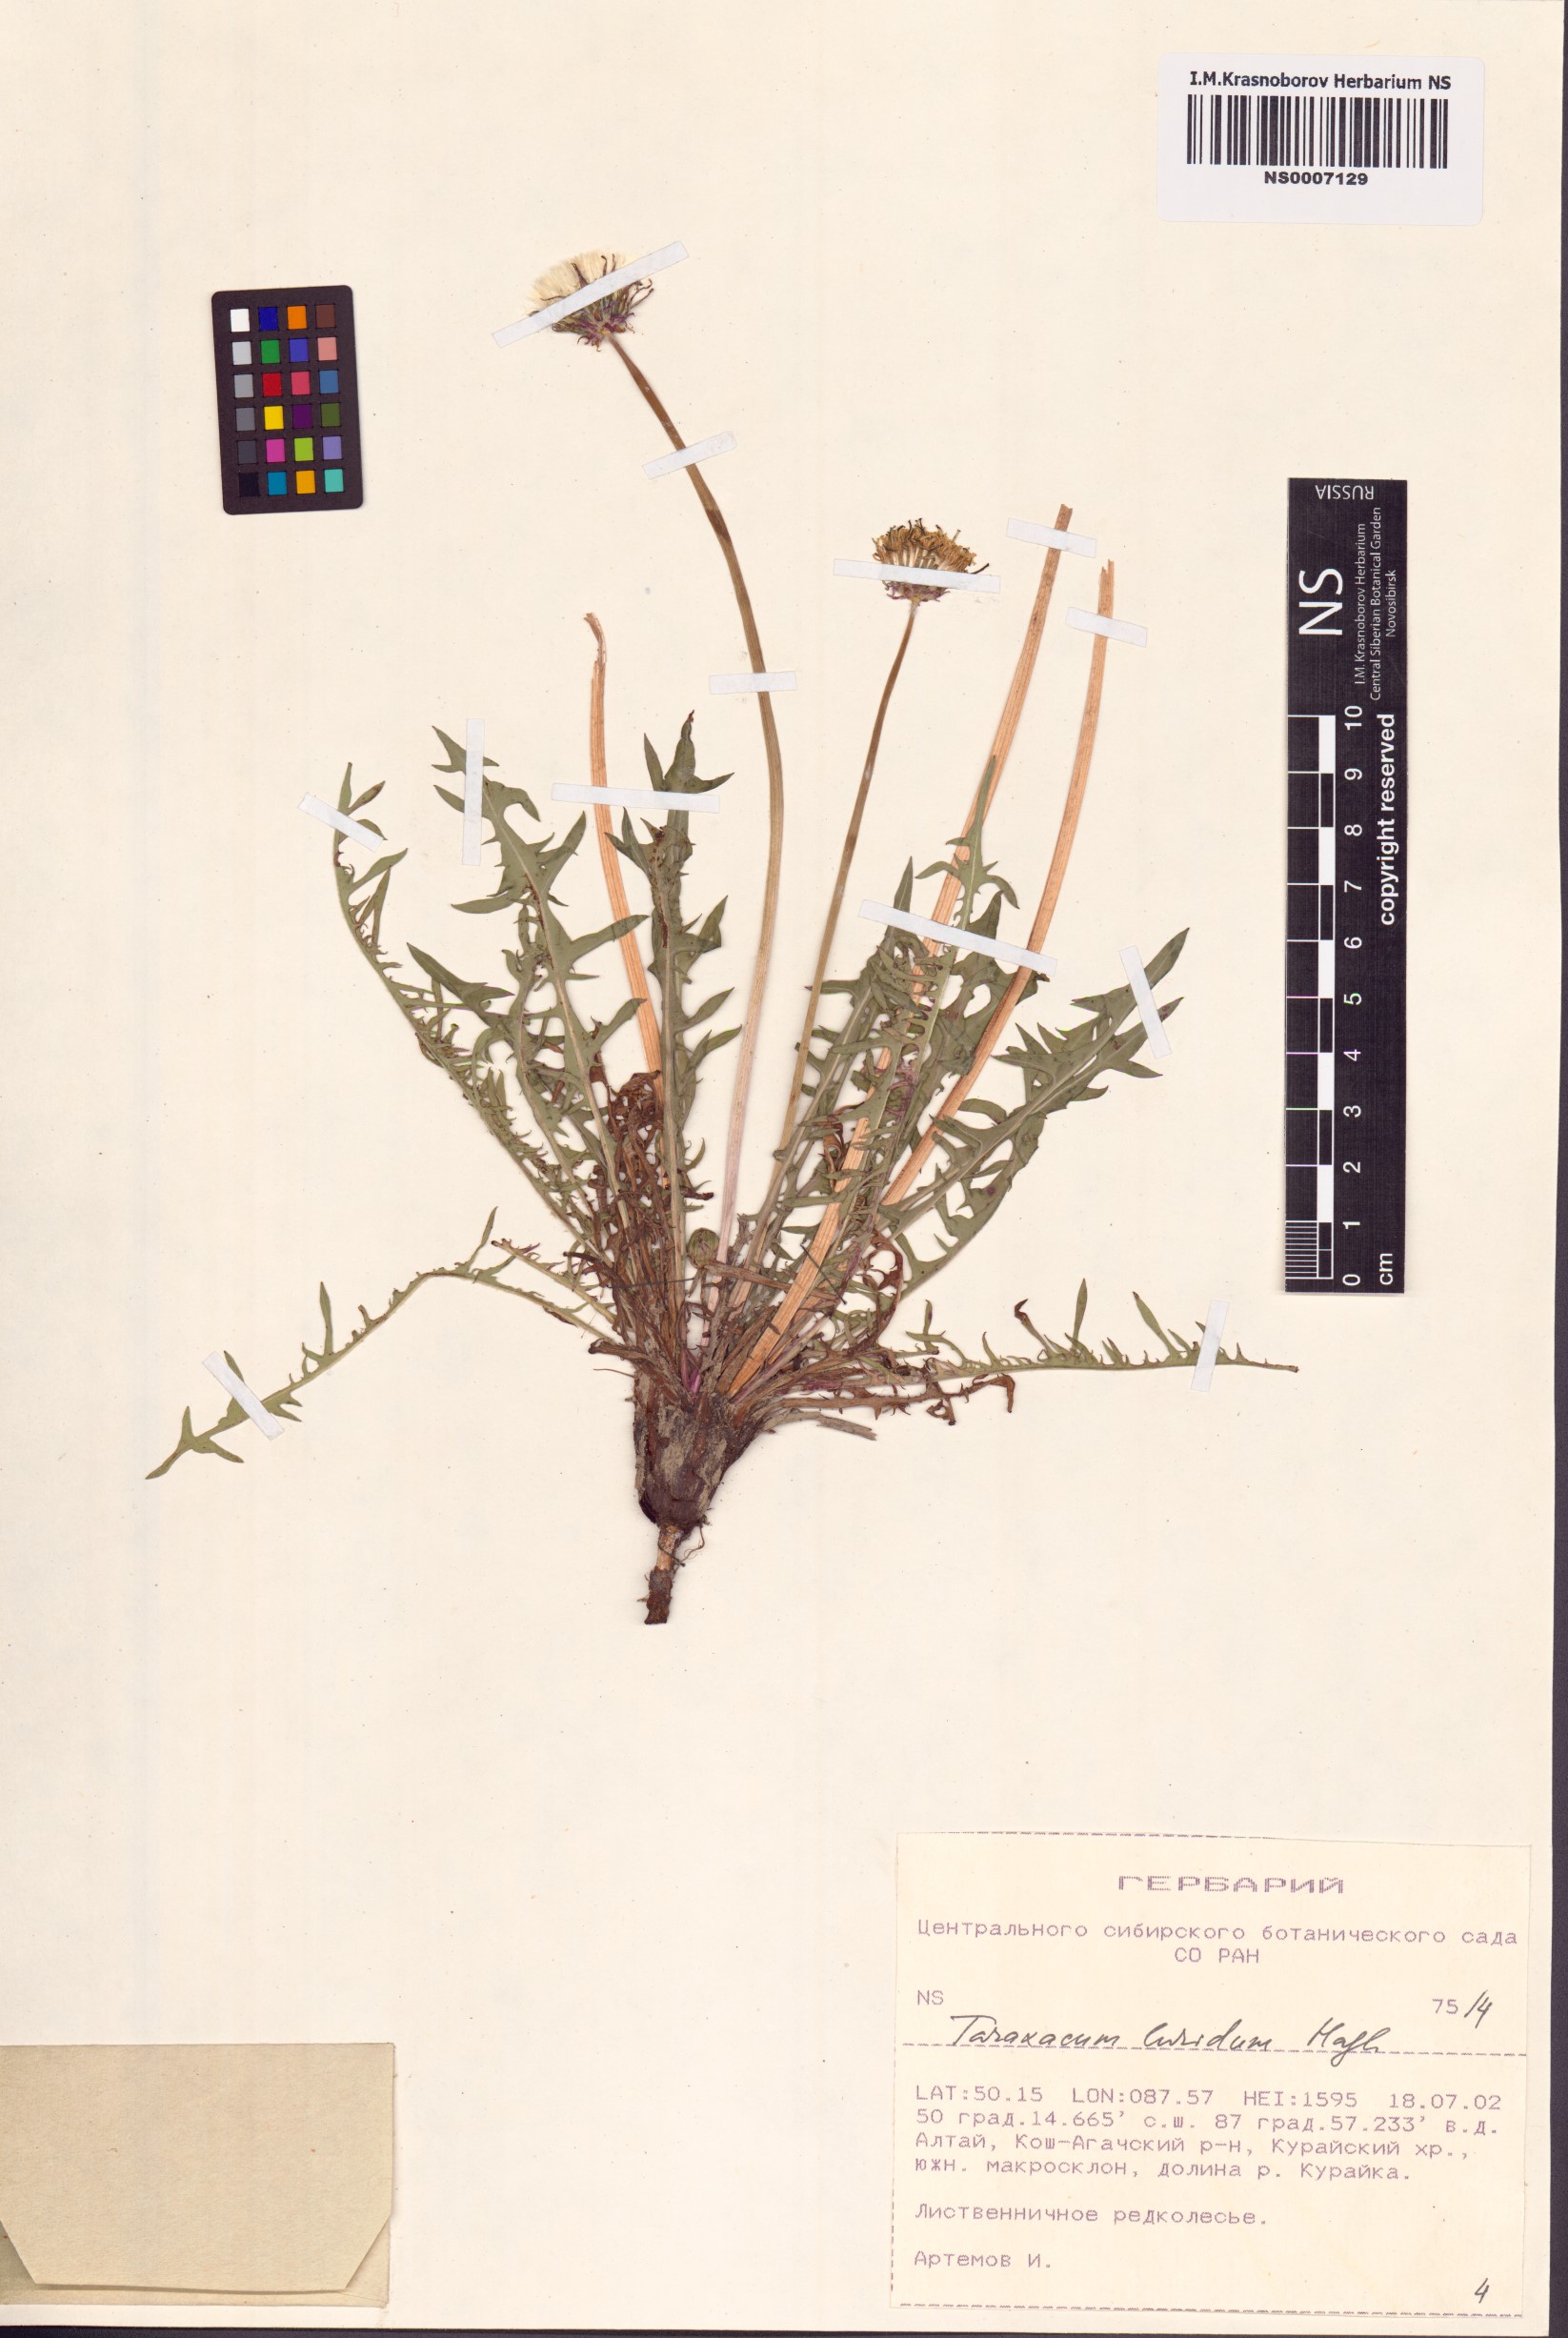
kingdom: Plantae
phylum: Tracheophyta
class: Magnoliopsida
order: Asterales
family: Asteraceae
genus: Taraxacum
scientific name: Taraxacum luridum
